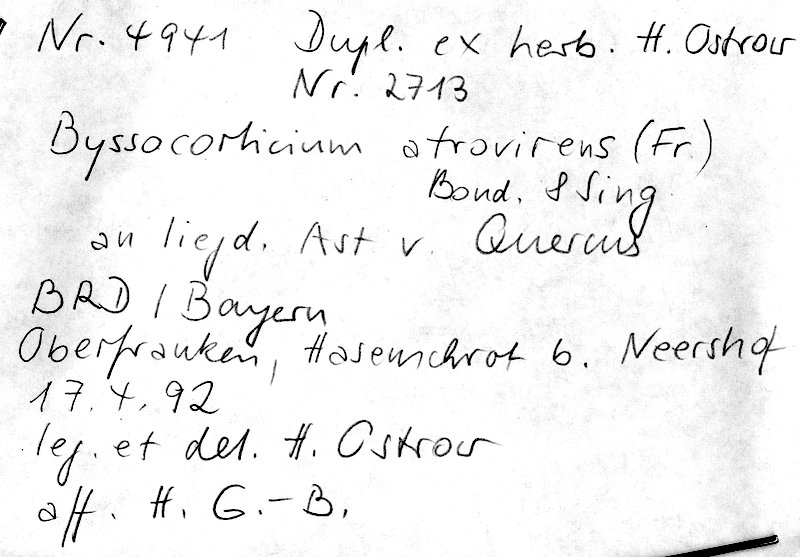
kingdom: Fungi
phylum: Basidiomycota
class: Agaricomycetes
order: Atheliales
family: Atheliaceae
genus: Byssocorticium
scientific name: Byssocorticium atrovirens
